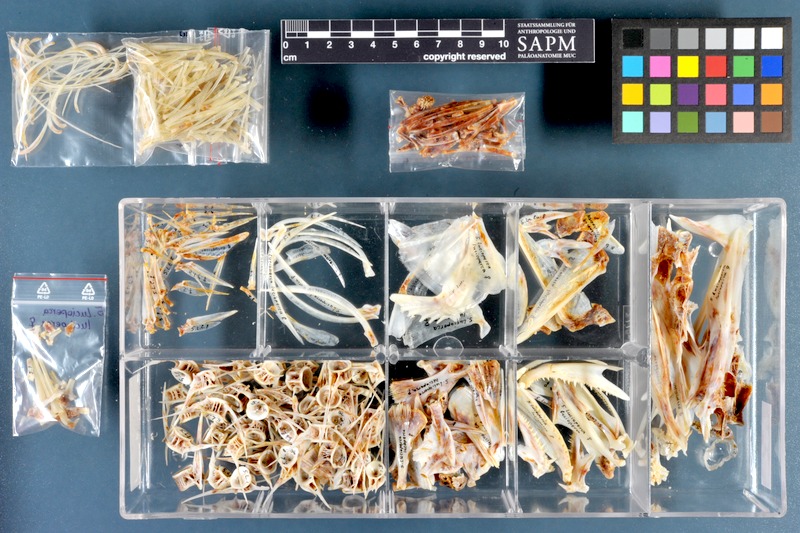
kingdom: Animalia
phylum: Chordata
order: Perciformes
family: Percidae
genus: Sander
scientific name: Sander lucioperca
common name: Pikeperch
